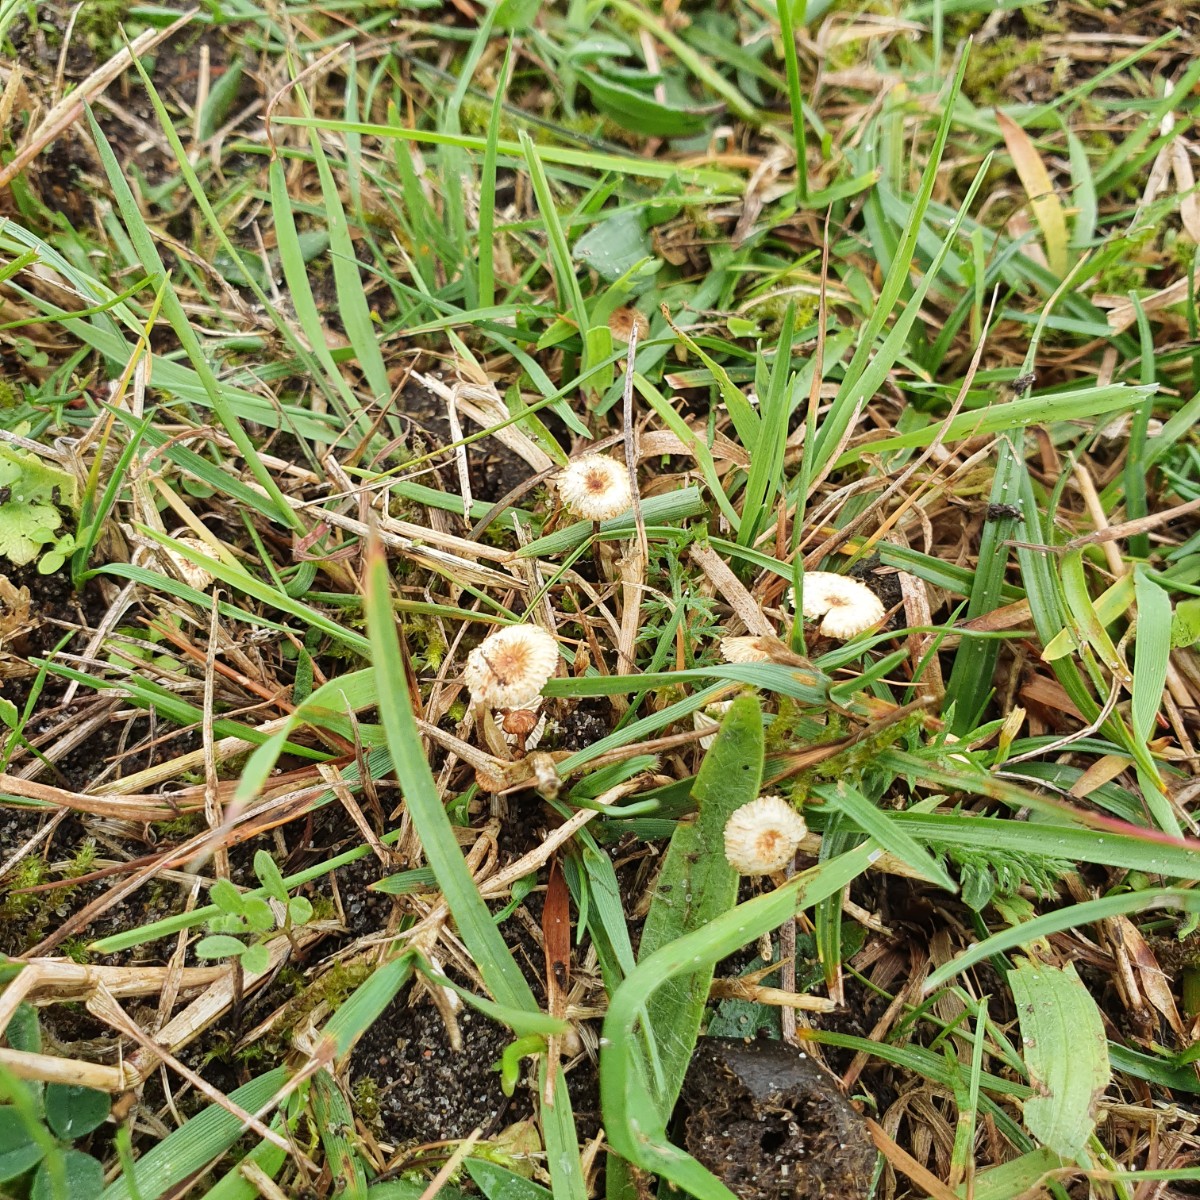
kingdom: Fungi
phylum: Basidiomycota
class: Agaricomycetes
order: Agaricales
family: Marasmiaceae
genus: Crinipellis
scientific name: Crinipellis scabella
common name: børstefod
